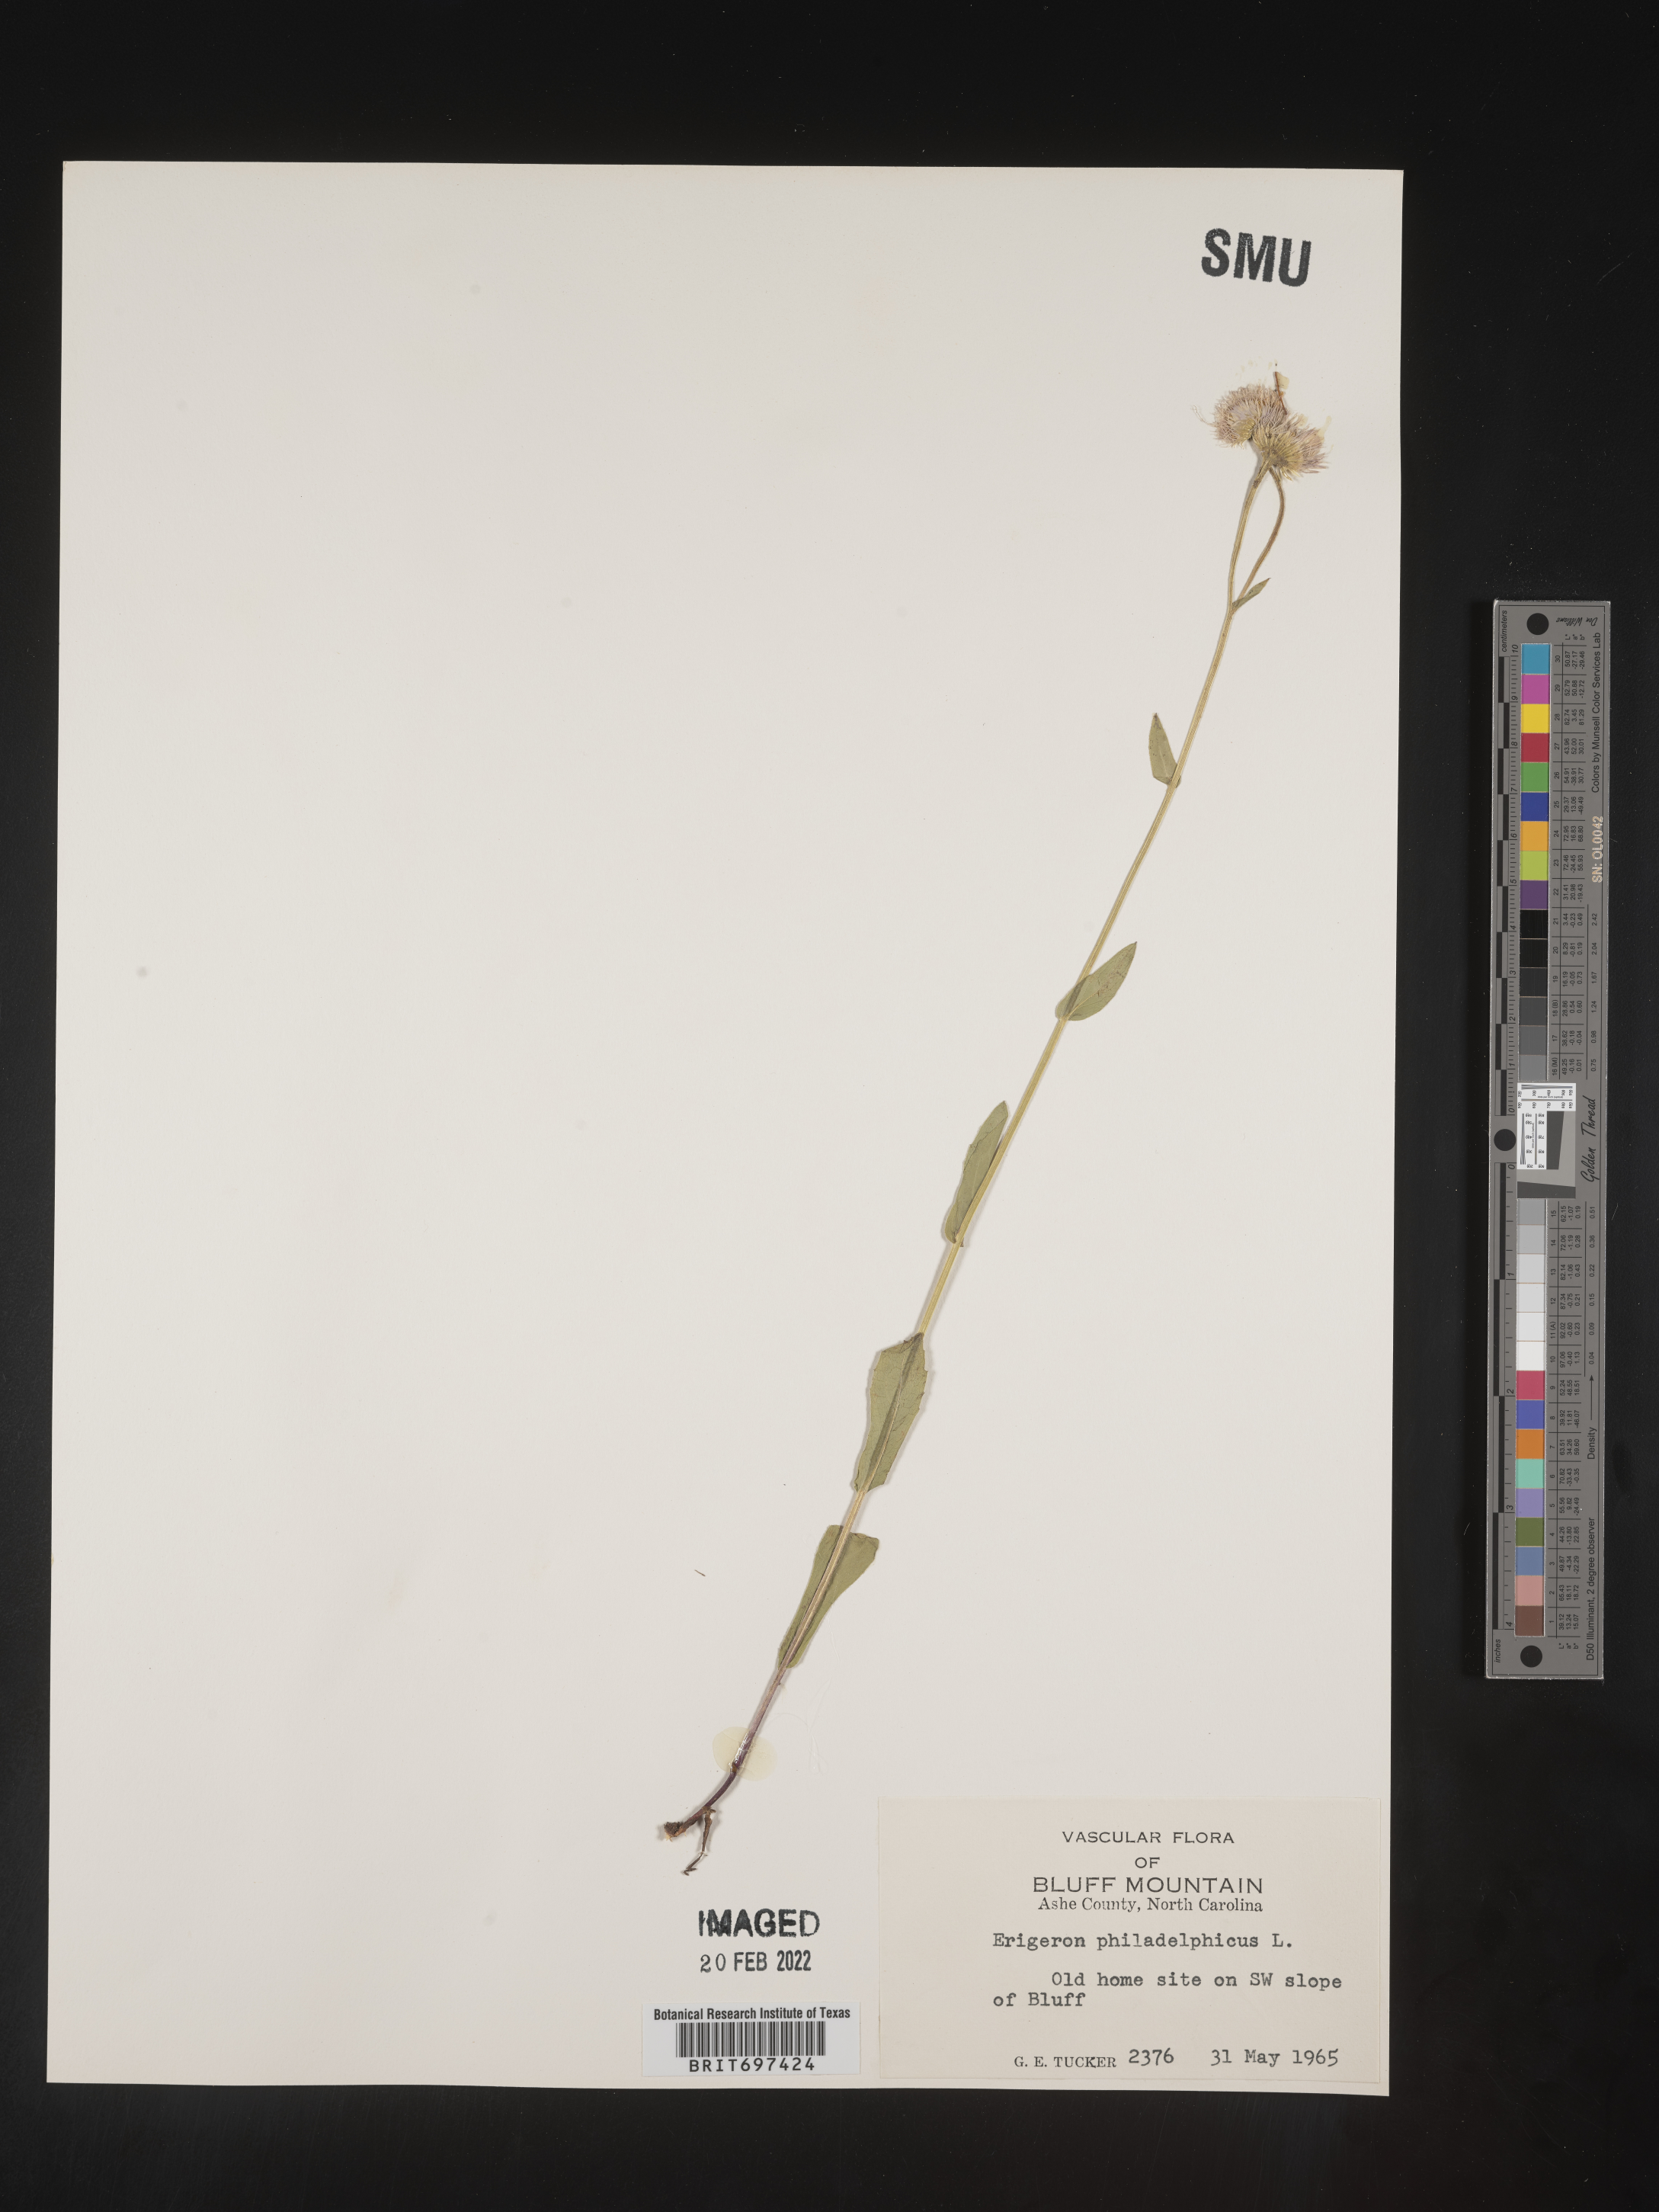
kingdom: Plantae
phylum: Tracheophyta
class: Magnoliopsida
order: Asterales
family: Asteraceae
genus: Erigeron
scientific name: Erigeron philadelphicus
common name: Robin's-plantain
